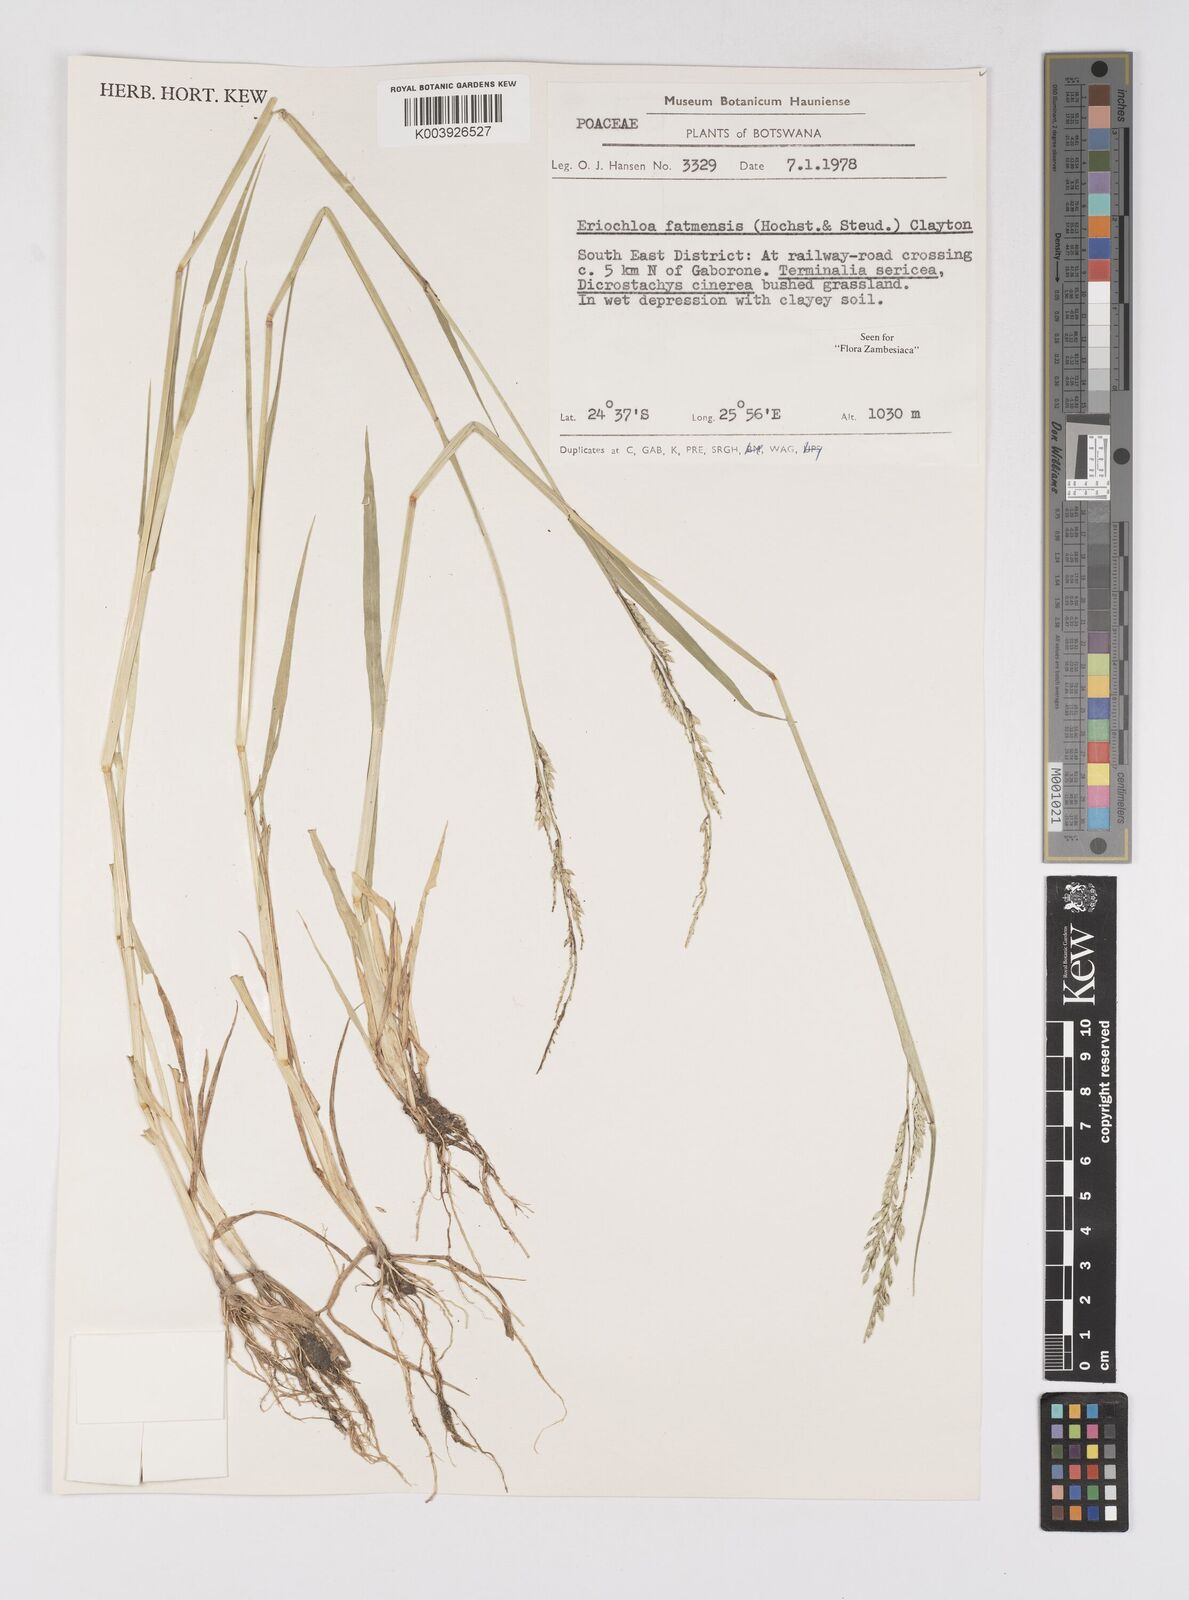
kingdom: Plantae
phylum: Tracheophyta
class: Liliopsida
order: Poales
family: Poaceae
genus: Eriochloa
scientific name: Eriochloa barbatus
